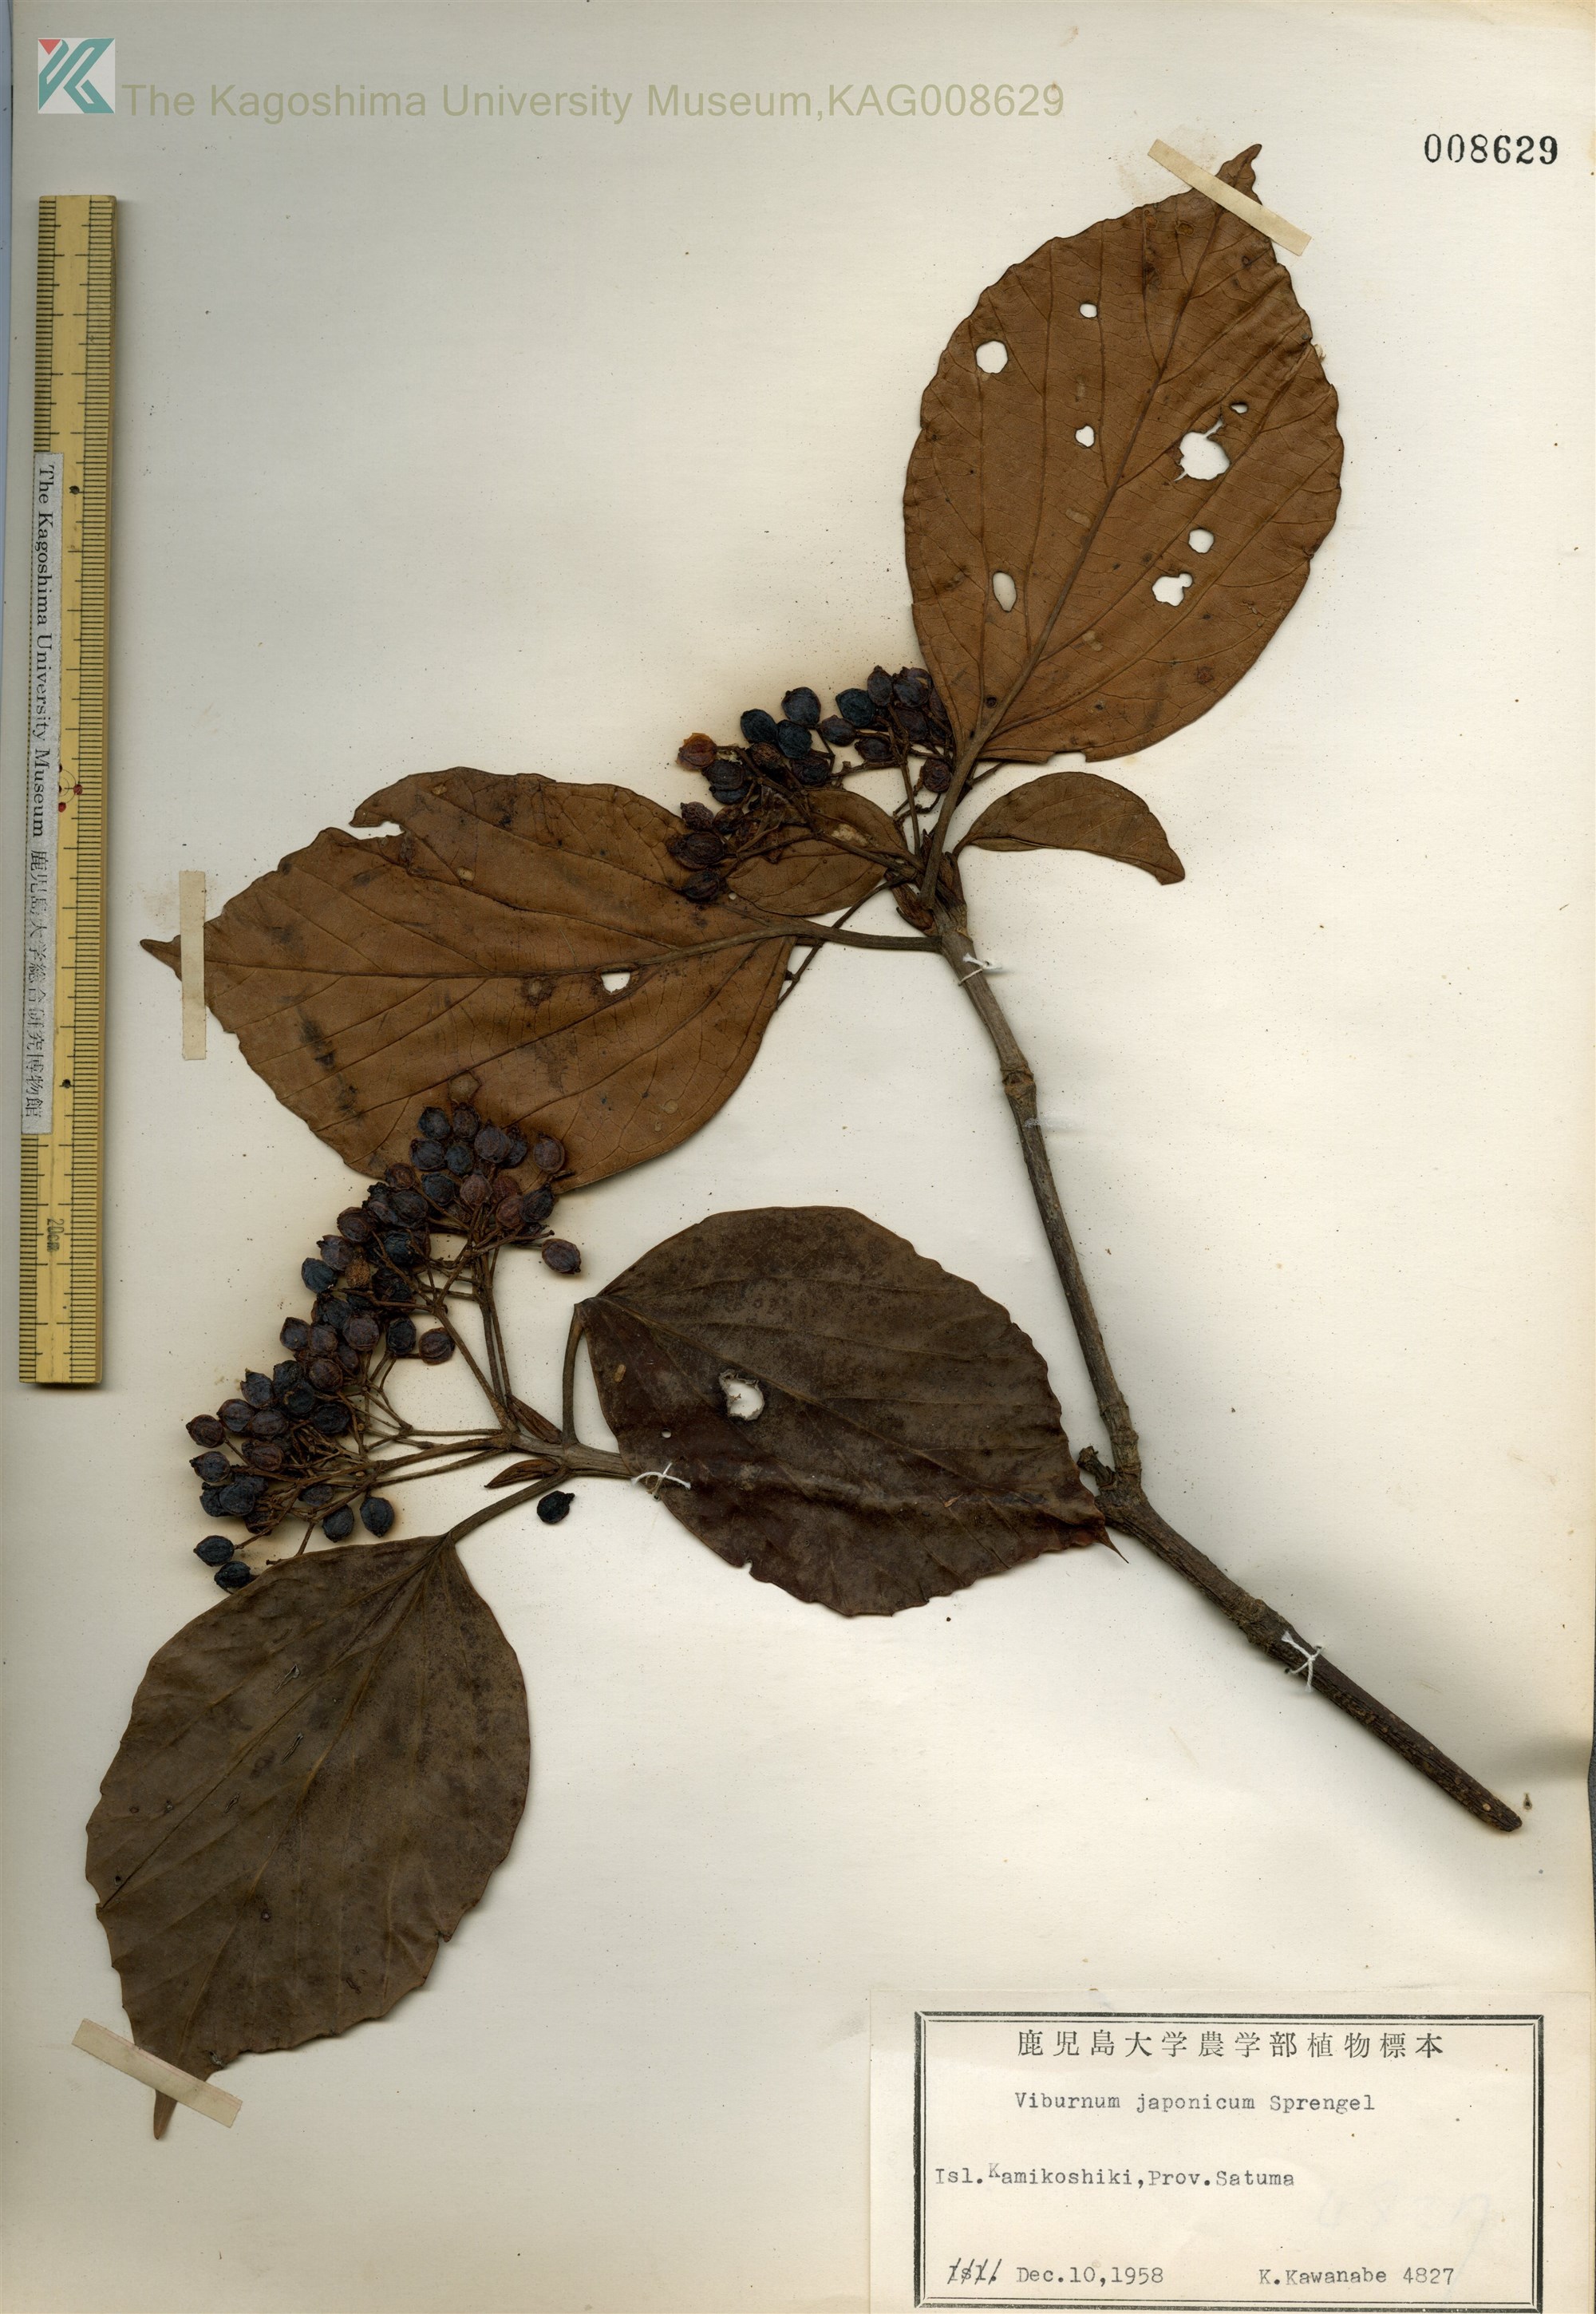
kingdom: Plantae
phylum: Tracheophyta
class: Magnoliopsida
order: Dipsacales
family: Viburnaceae
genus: Viburnum
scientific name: Viburnum japonicum
